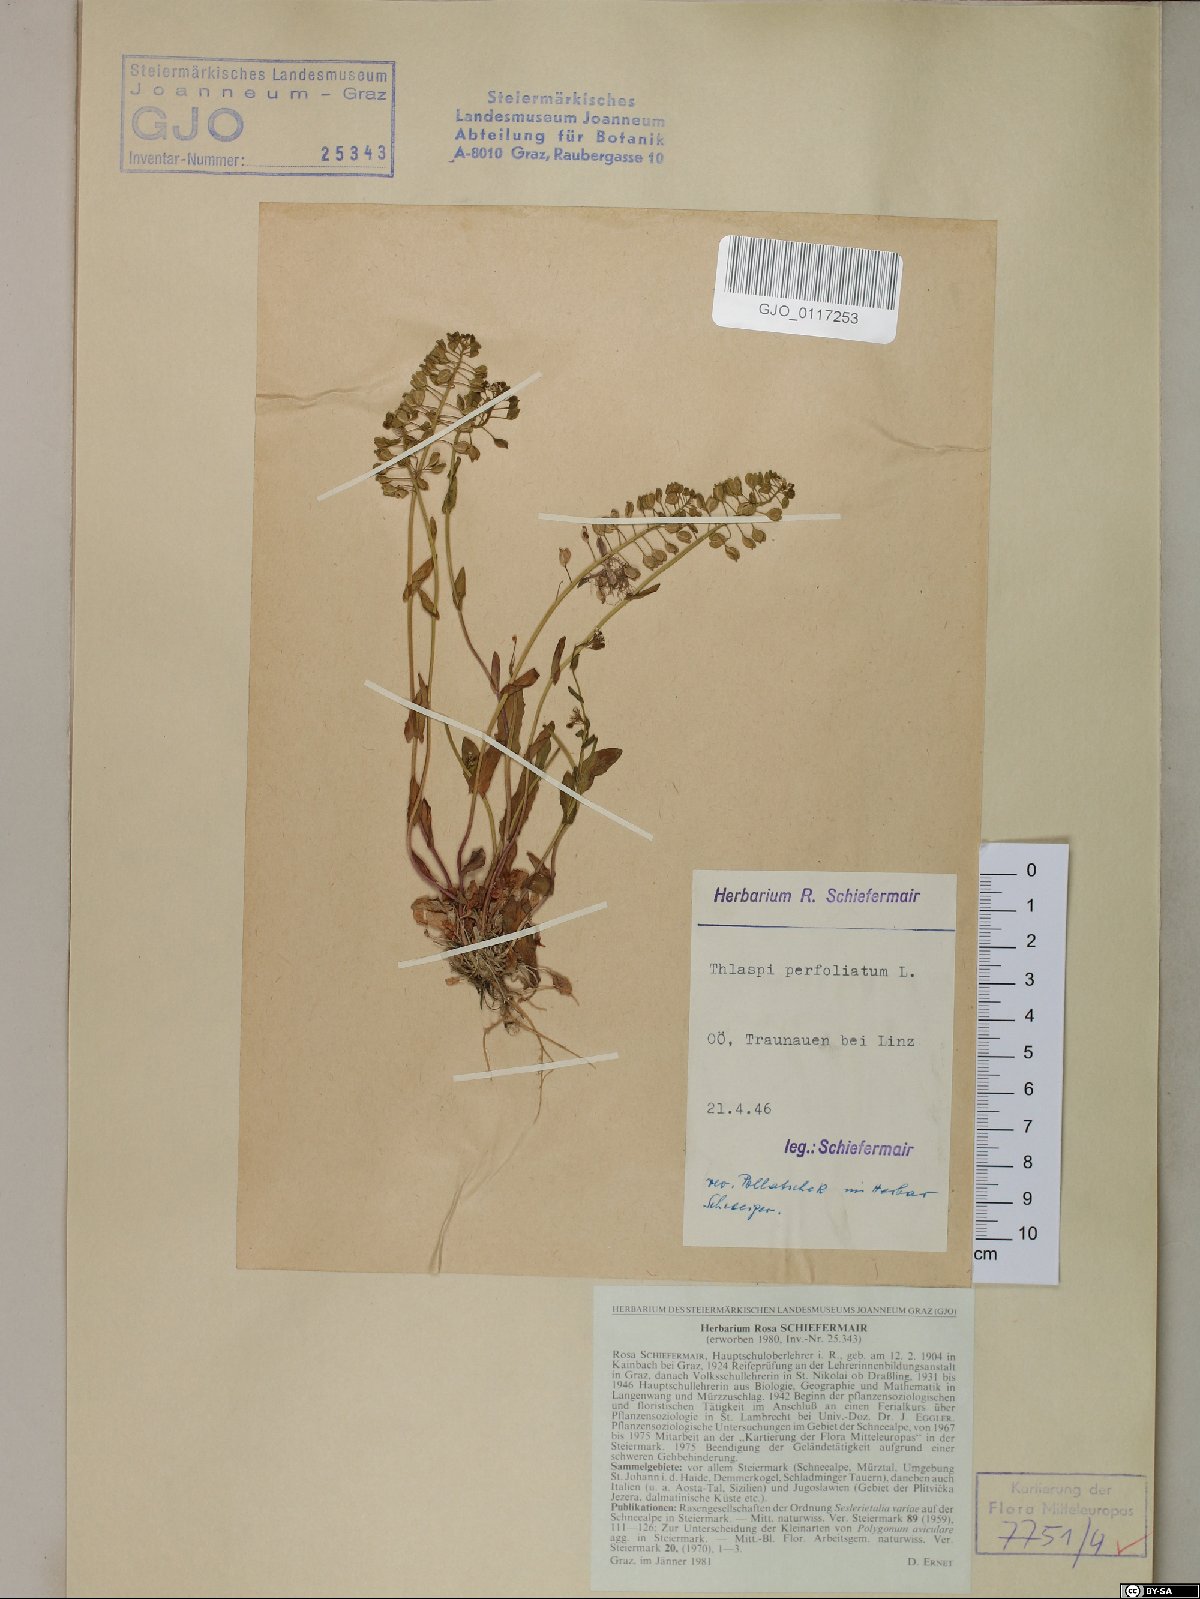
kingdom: Plantae
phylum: Tracheophyta
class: Magnoliopsida
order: Brassicales
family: Brassicaceae
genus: Noccaea
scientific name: Noccaea perfoliata
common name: Perfoliate pennycress
